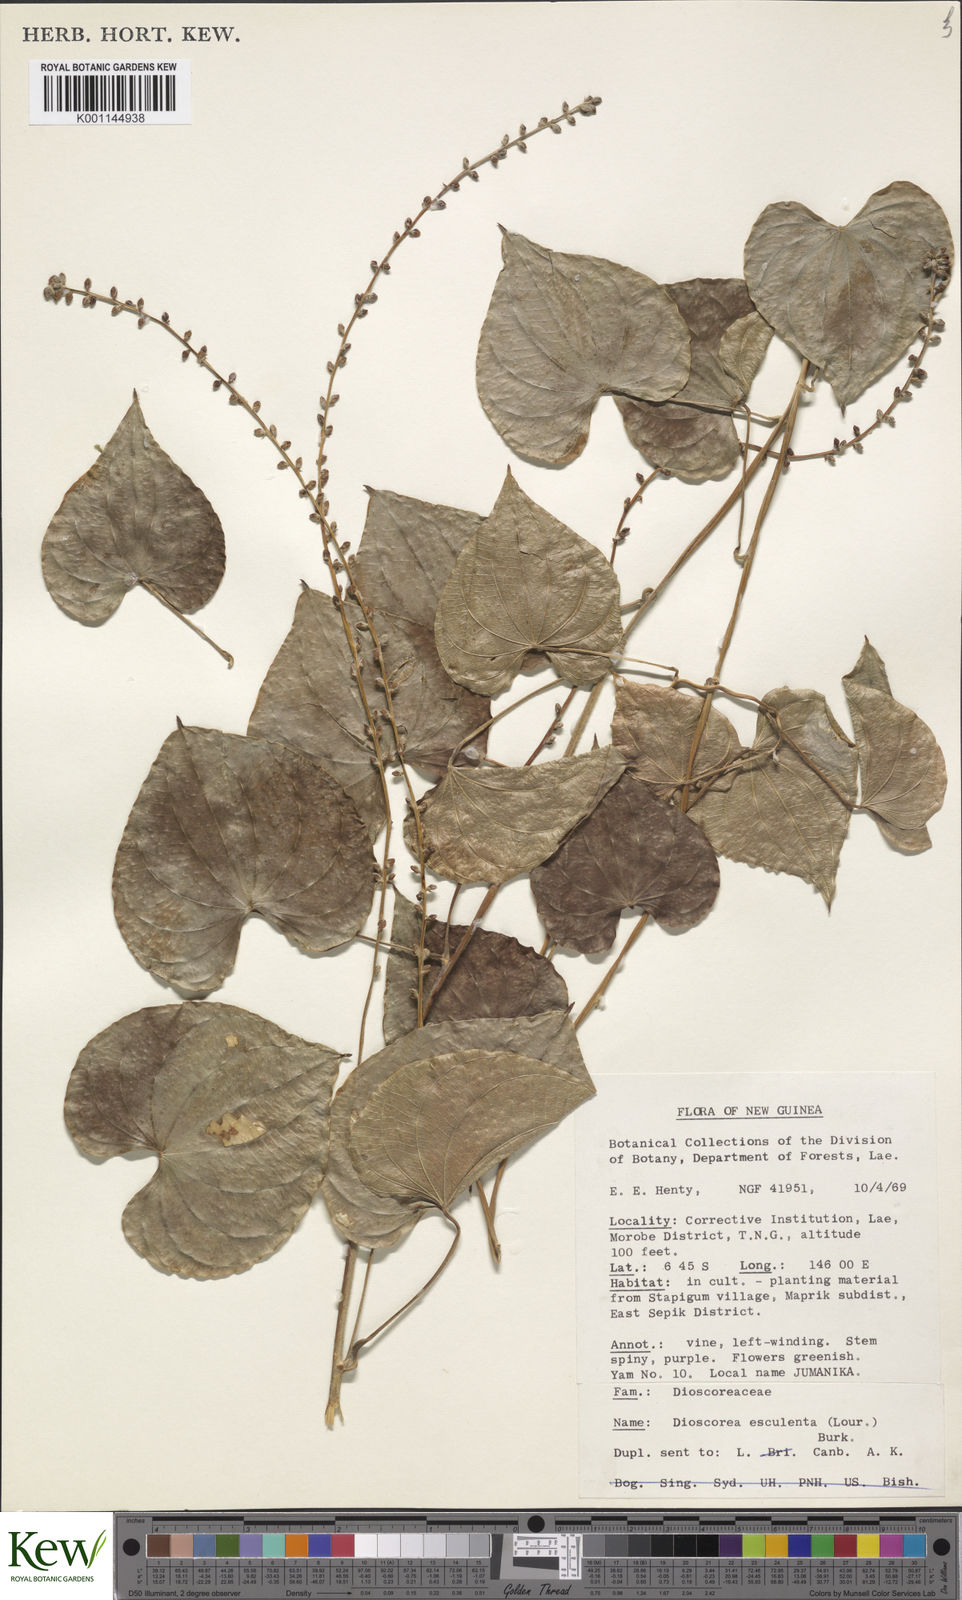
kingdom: Plantae
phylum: Tracheophyta
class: Liliopsida
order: Dioscoreales
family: Dioscoreaceae
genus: Dioscorea
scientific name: Dioscorea esculenta
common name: Chinese yam
